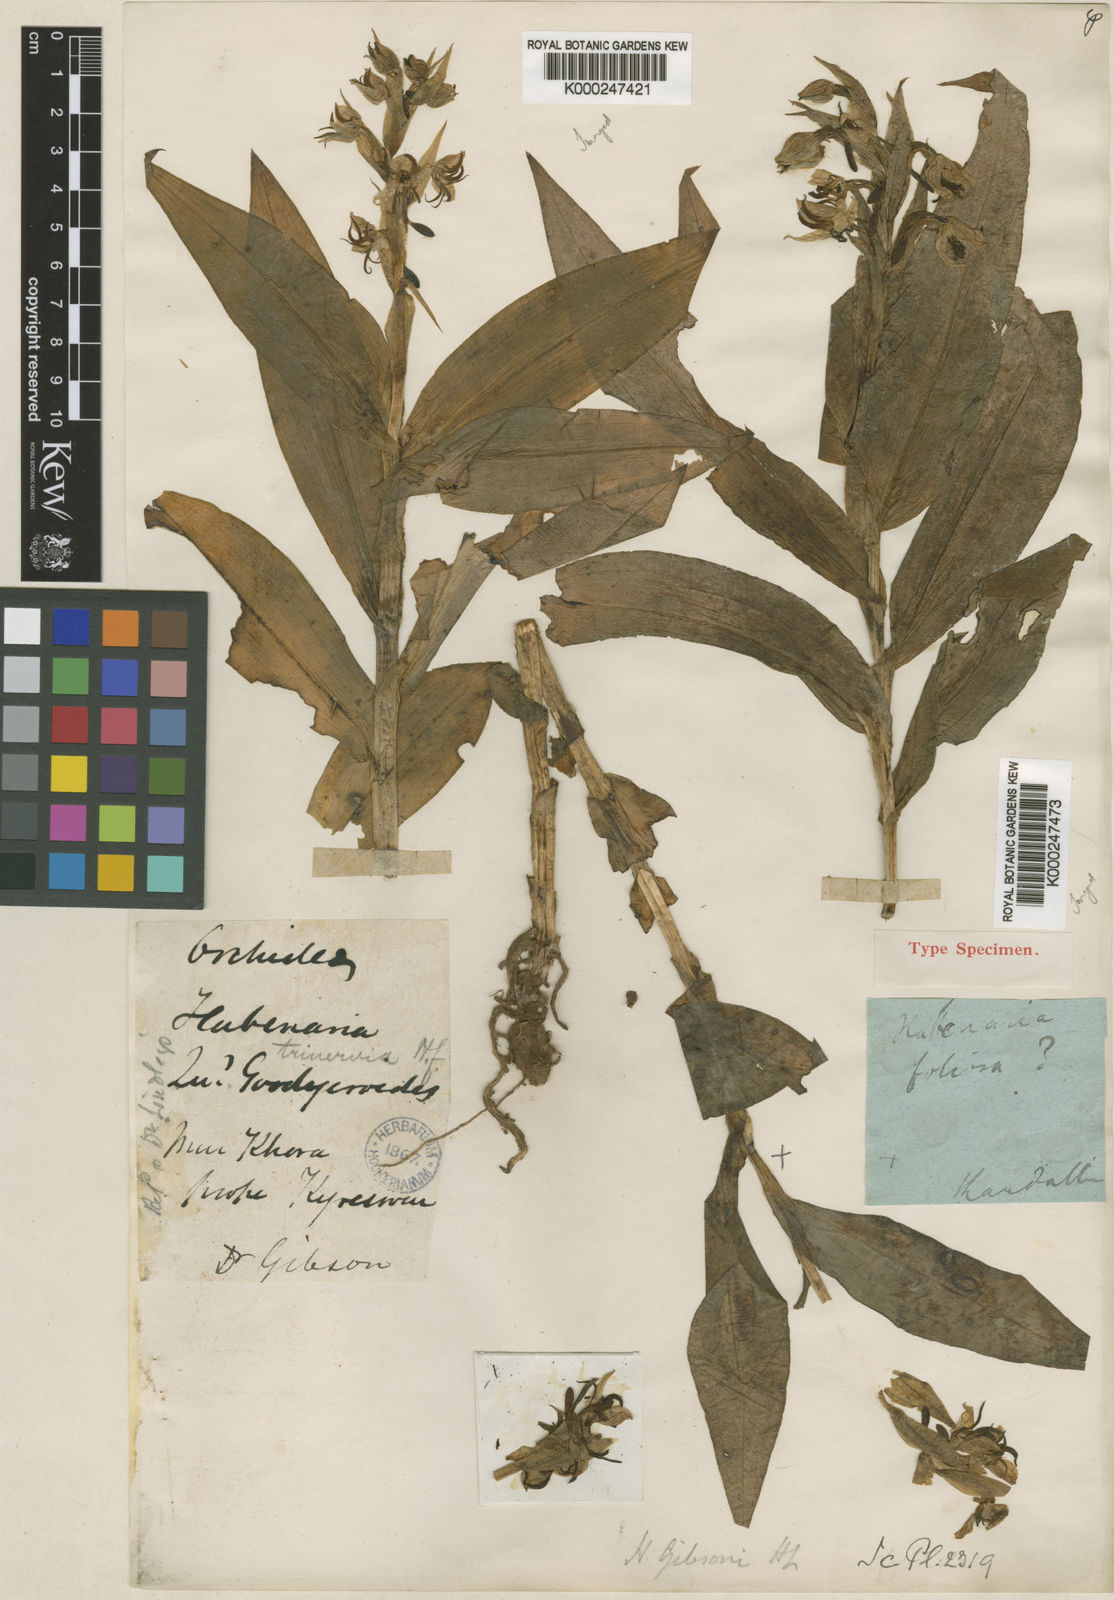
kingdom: Plantae
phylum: Tracheophyta
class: Liliopsida
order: Asparagales
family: Orchidaceae
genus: Habenaria
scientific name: Habenaria gibsonii
